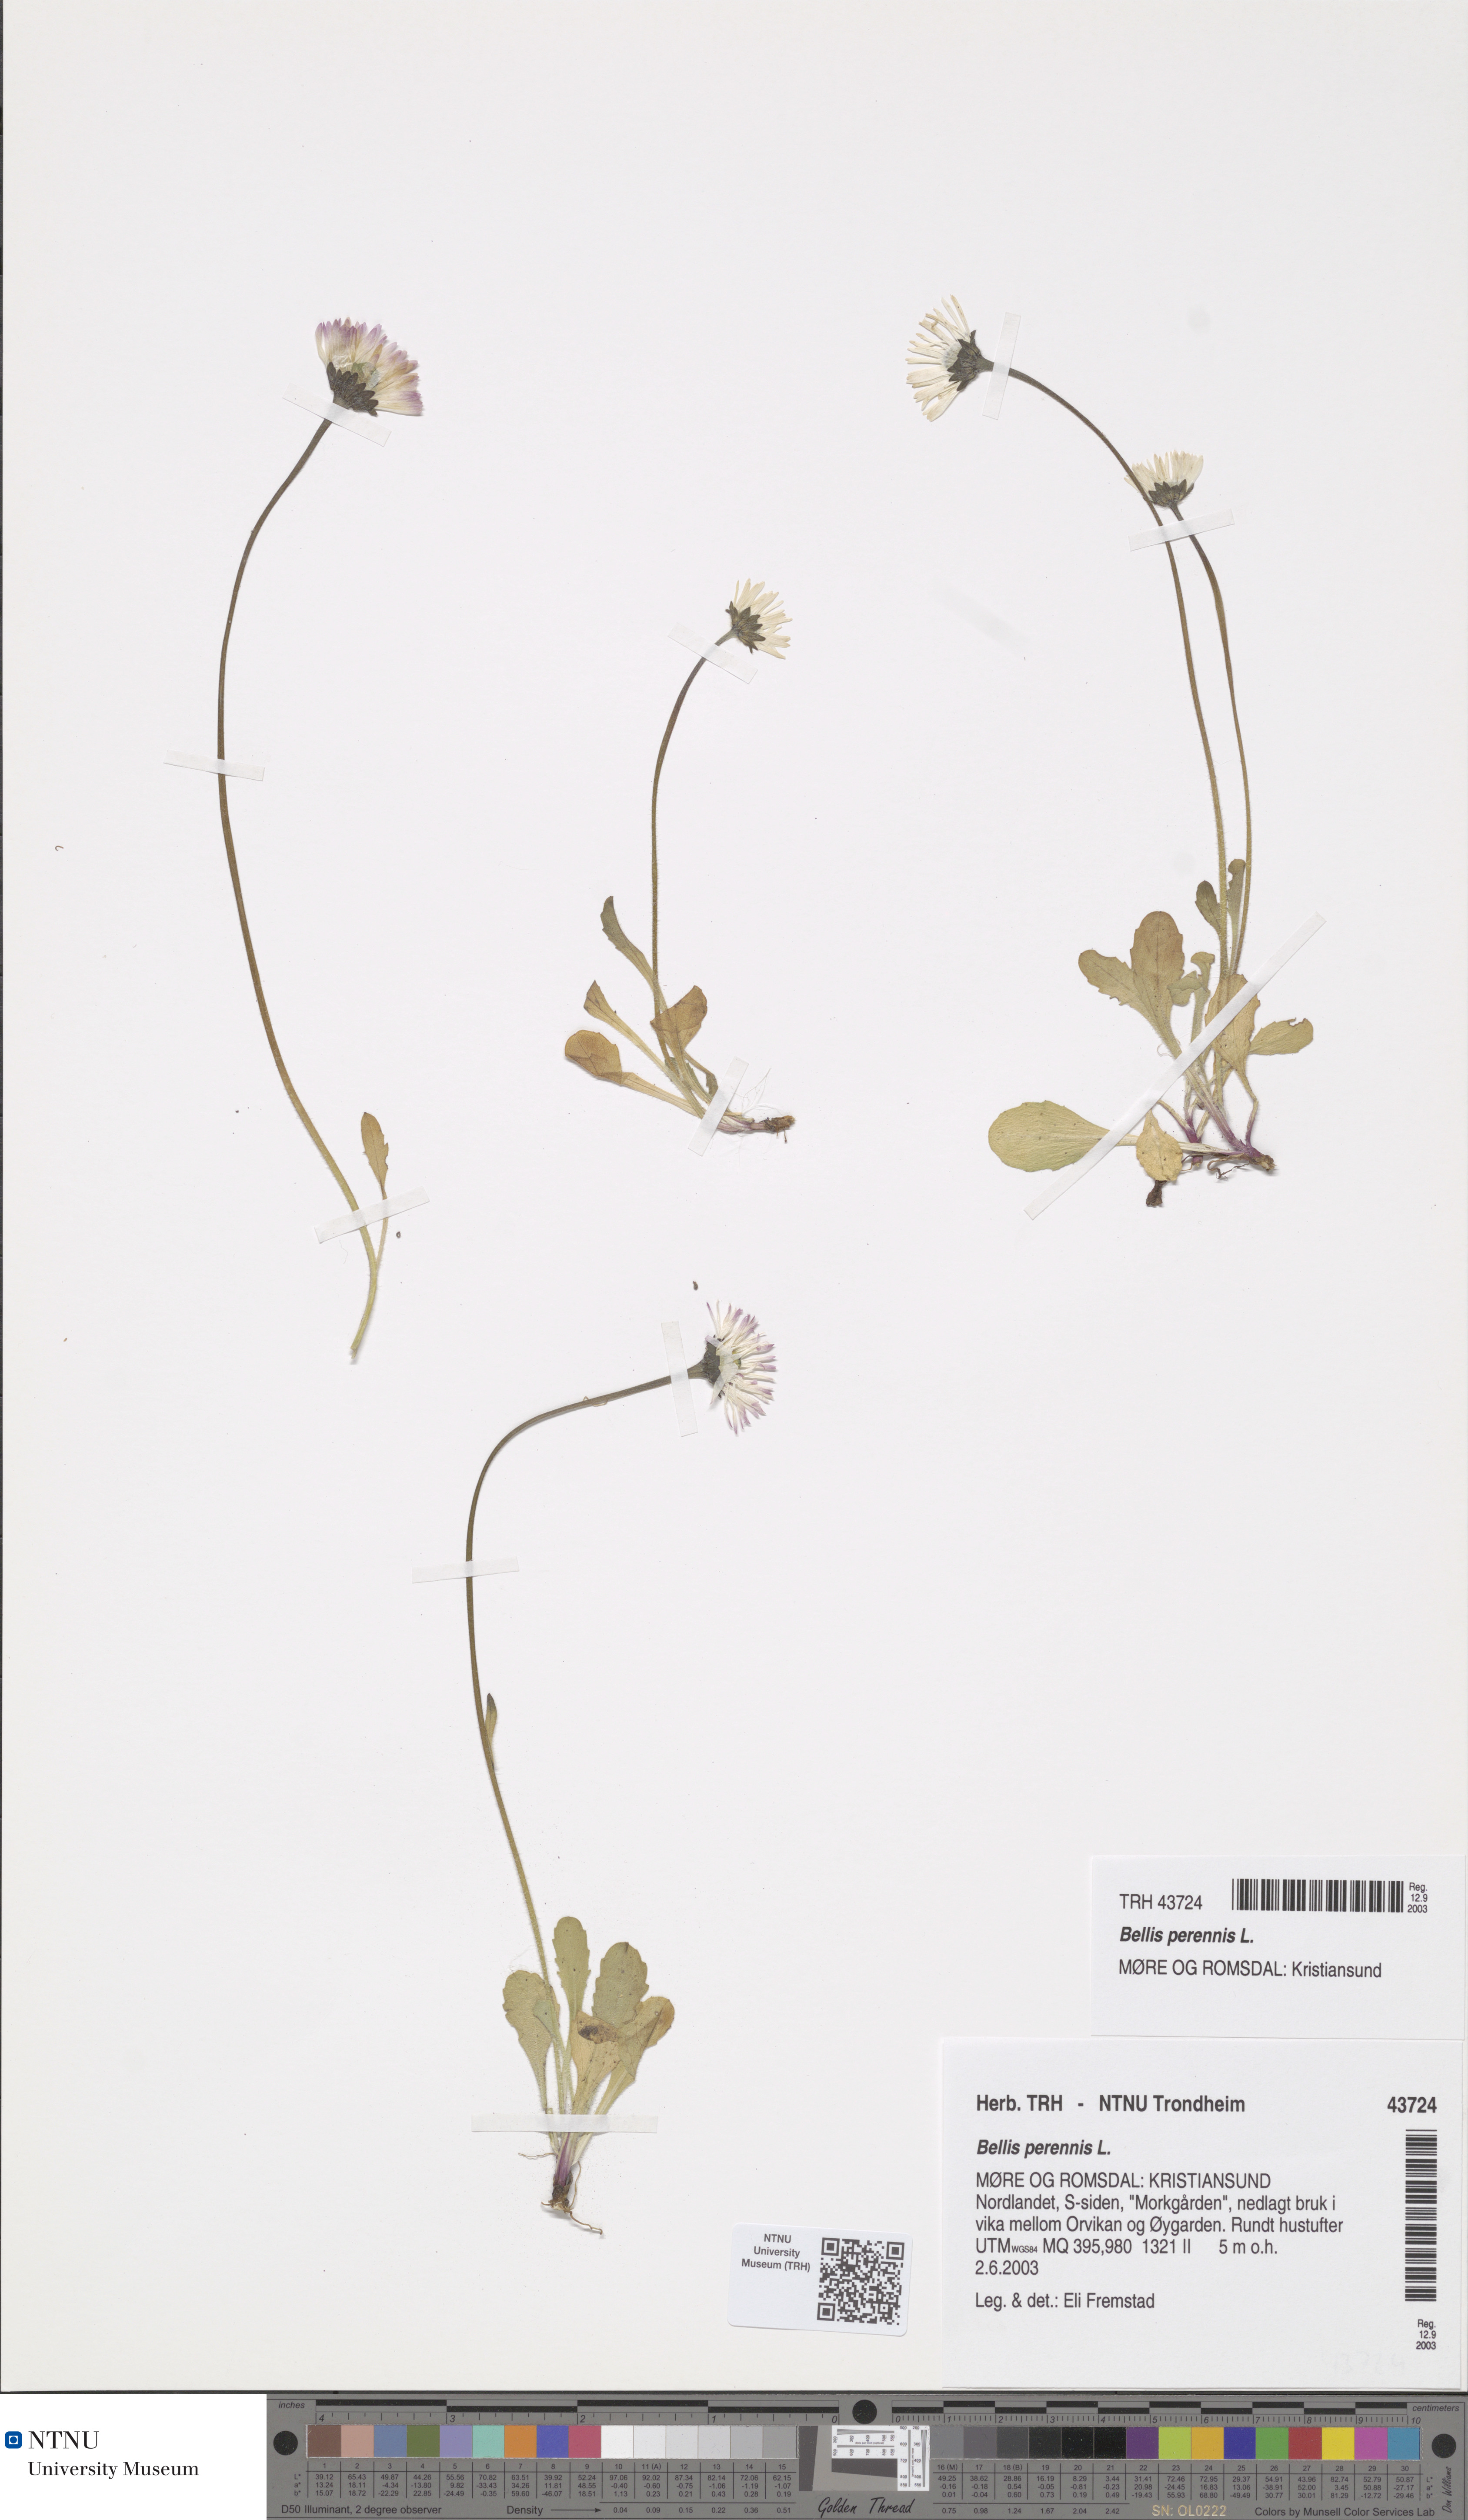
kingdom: Plantae
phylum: Tracheophyta
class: Magnoliopsida
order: Asterales
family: Asteraceae
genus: Bellis
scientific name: Bellis perennis
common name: Lawndaisy
